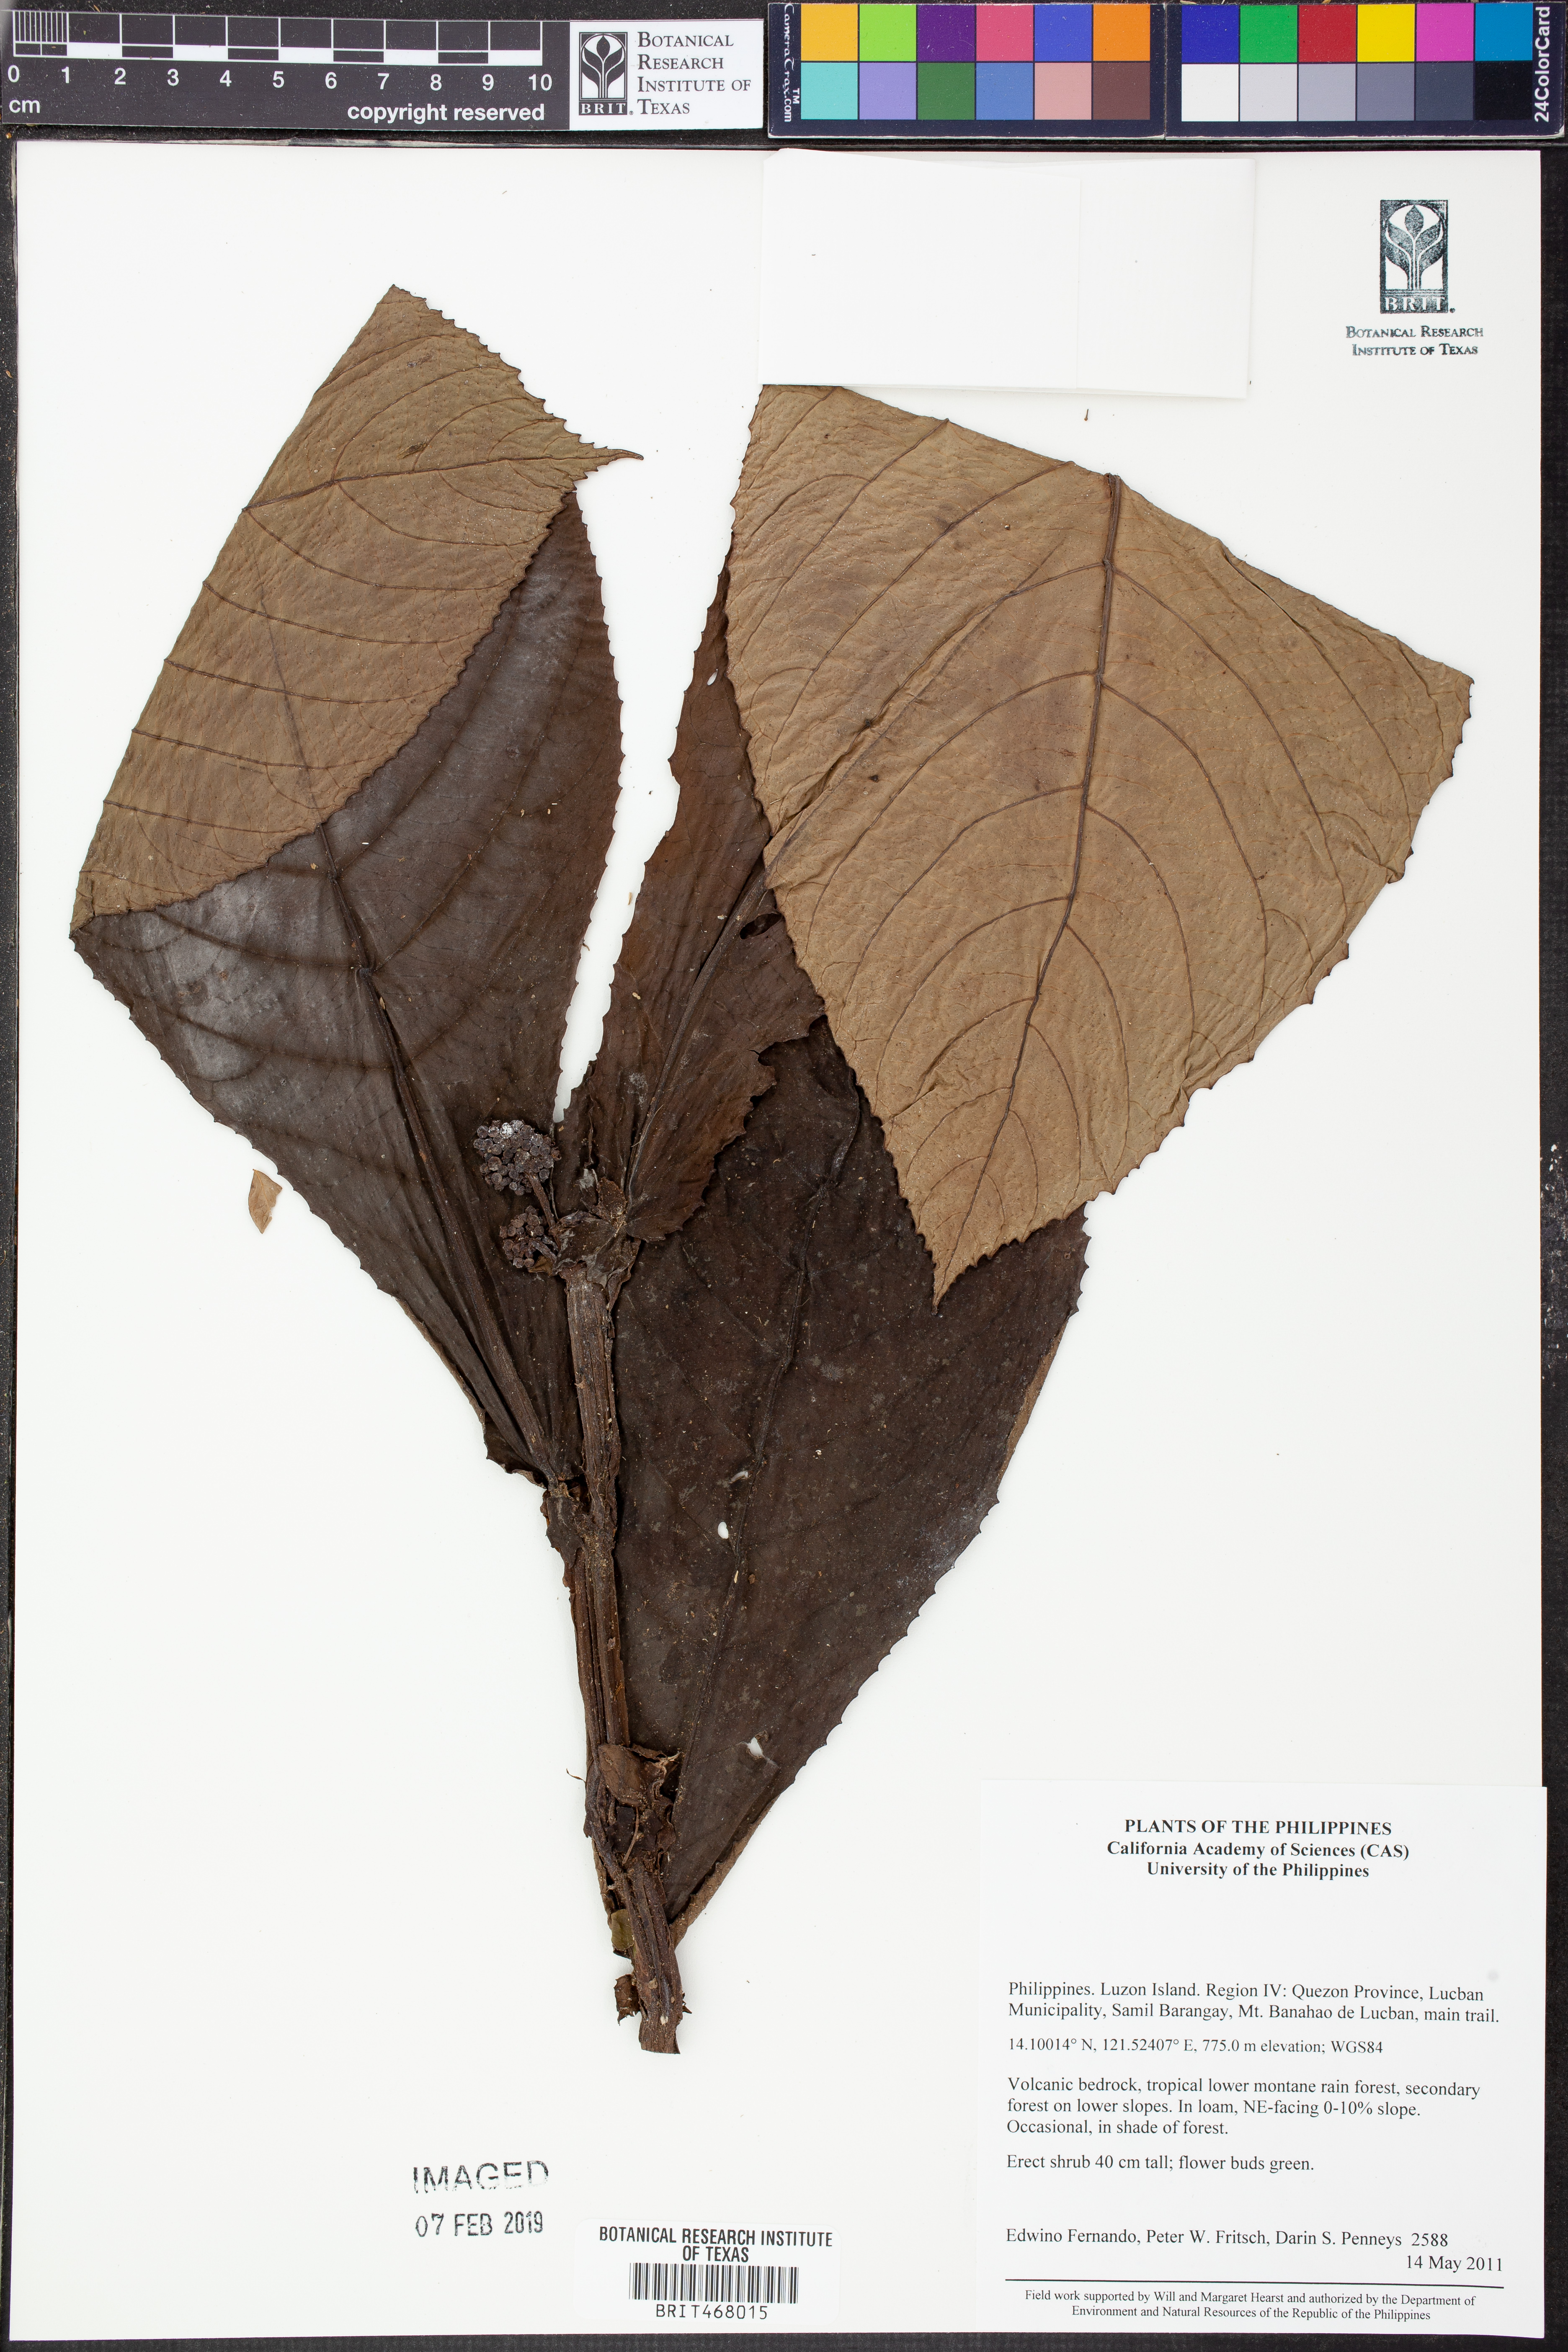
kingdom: Plantae
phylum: Tracheophyta
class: Magnoliopsida
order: Rosales
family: Urticaceae
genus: Elatostematoides
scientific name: Elatostematoides
